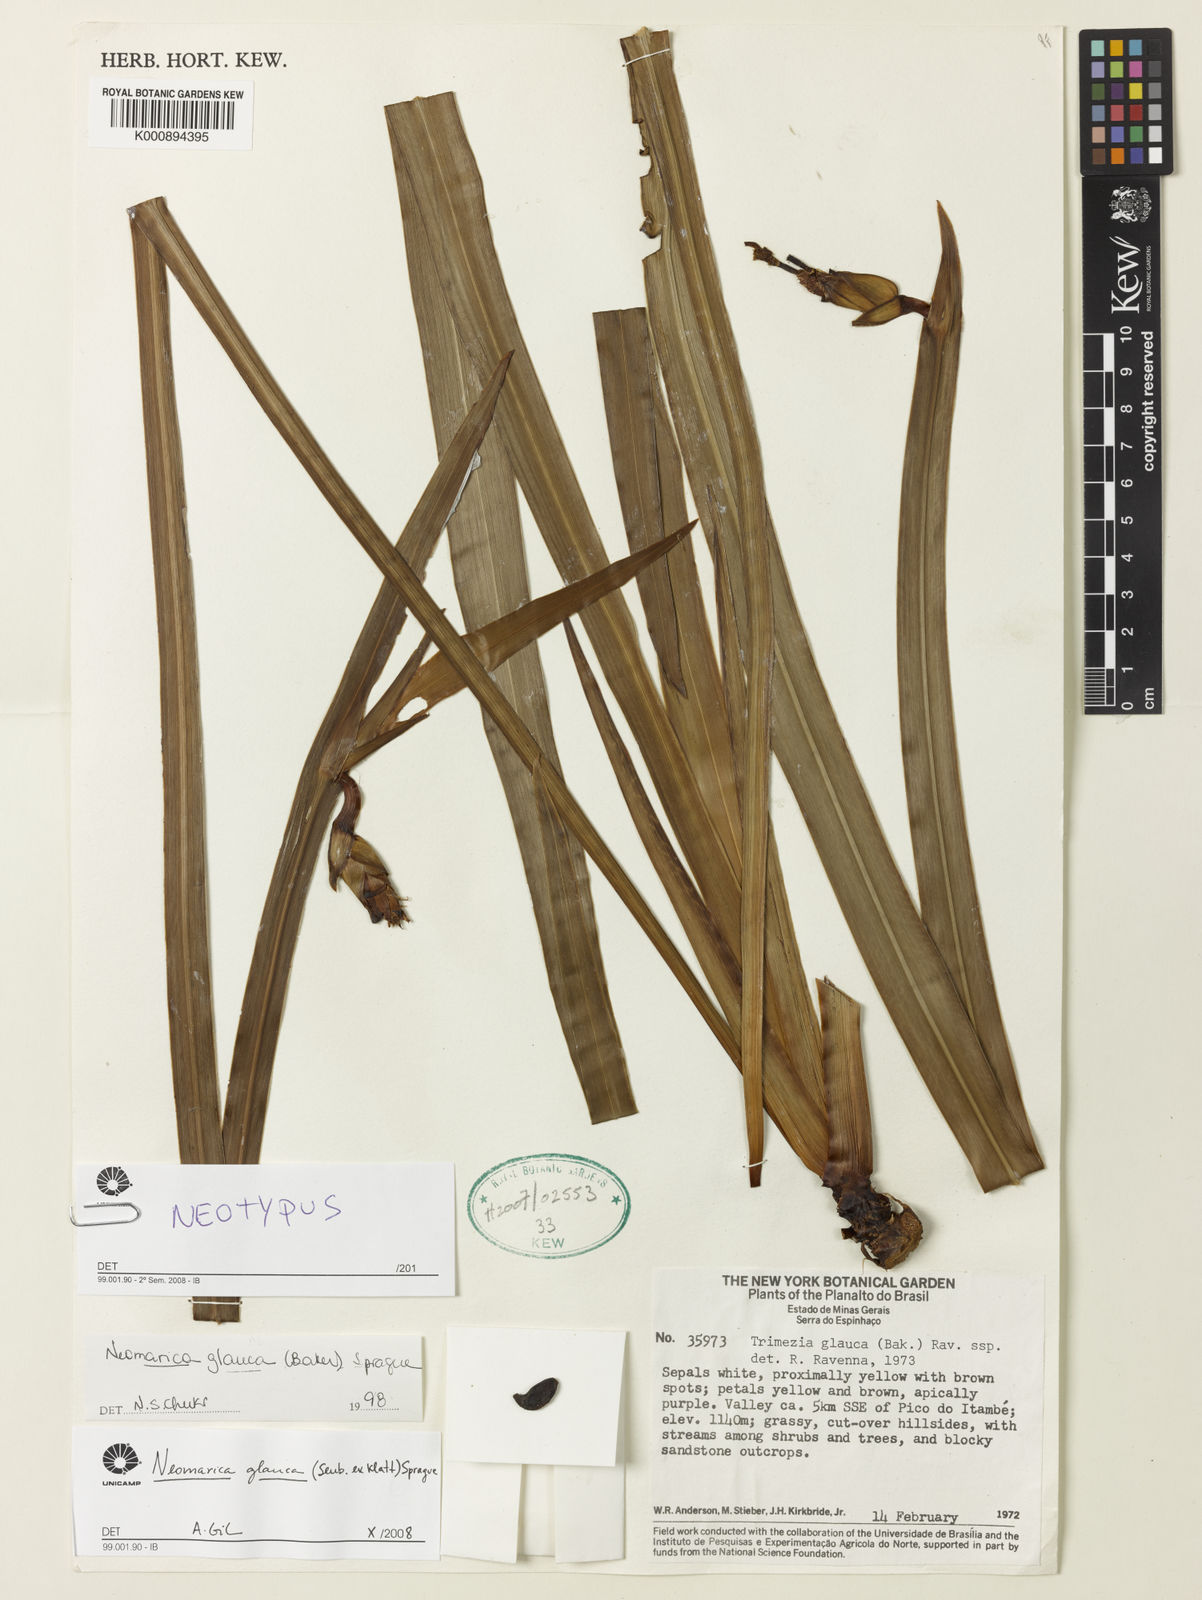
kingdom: Plantae
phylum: Tracheophyta
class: Liliopsida
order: Asparagales
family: Iridaceae
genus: Trimezia
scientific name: Trimezia glauca
